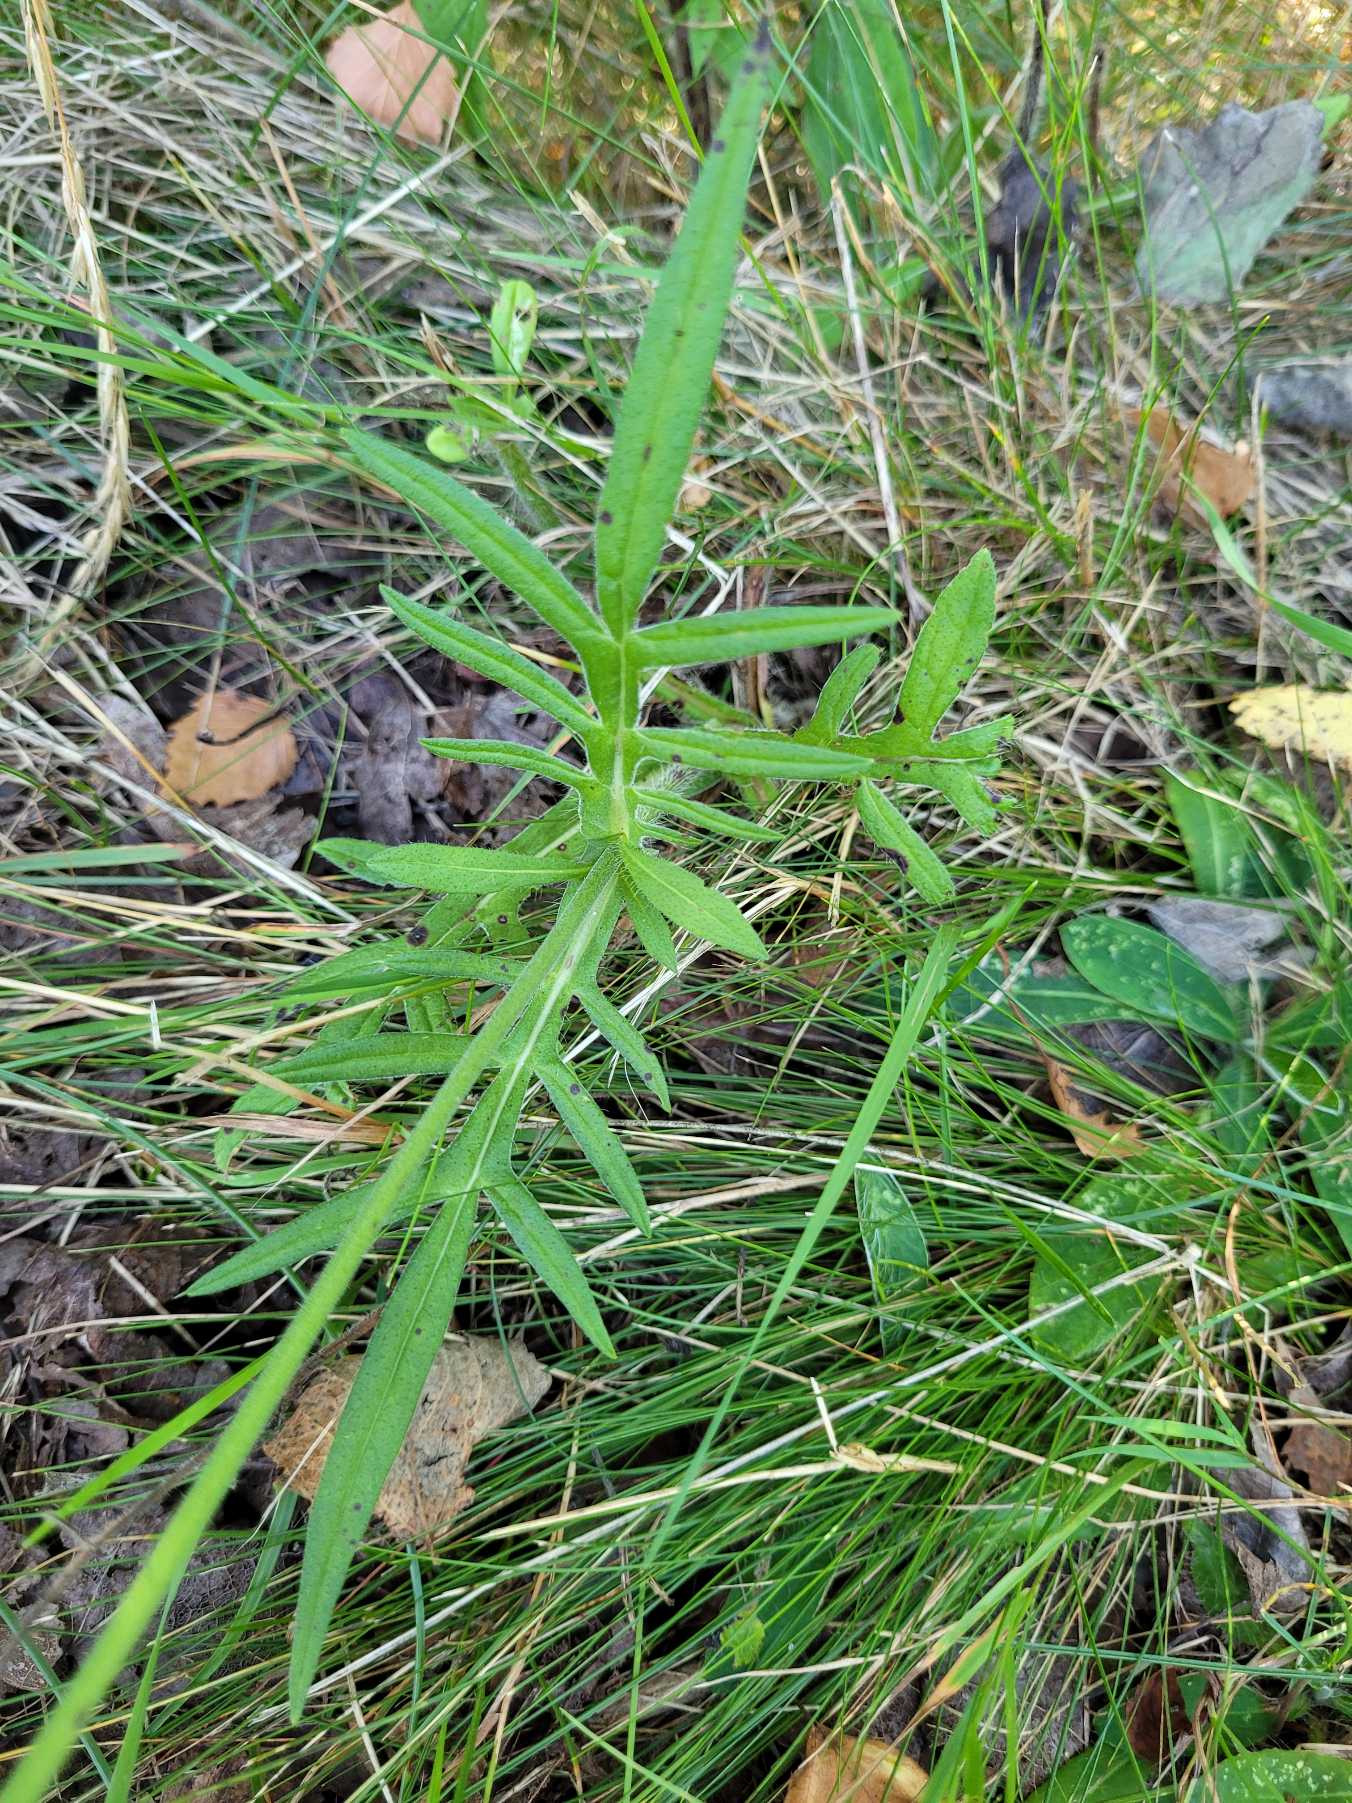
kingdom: Plantae
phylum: Tracheophyta
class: Magnoliopsida
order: Dipsacales
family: Caprifoliaceae
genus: Knautia
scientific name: Knautia arvensis
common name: Blåhat
